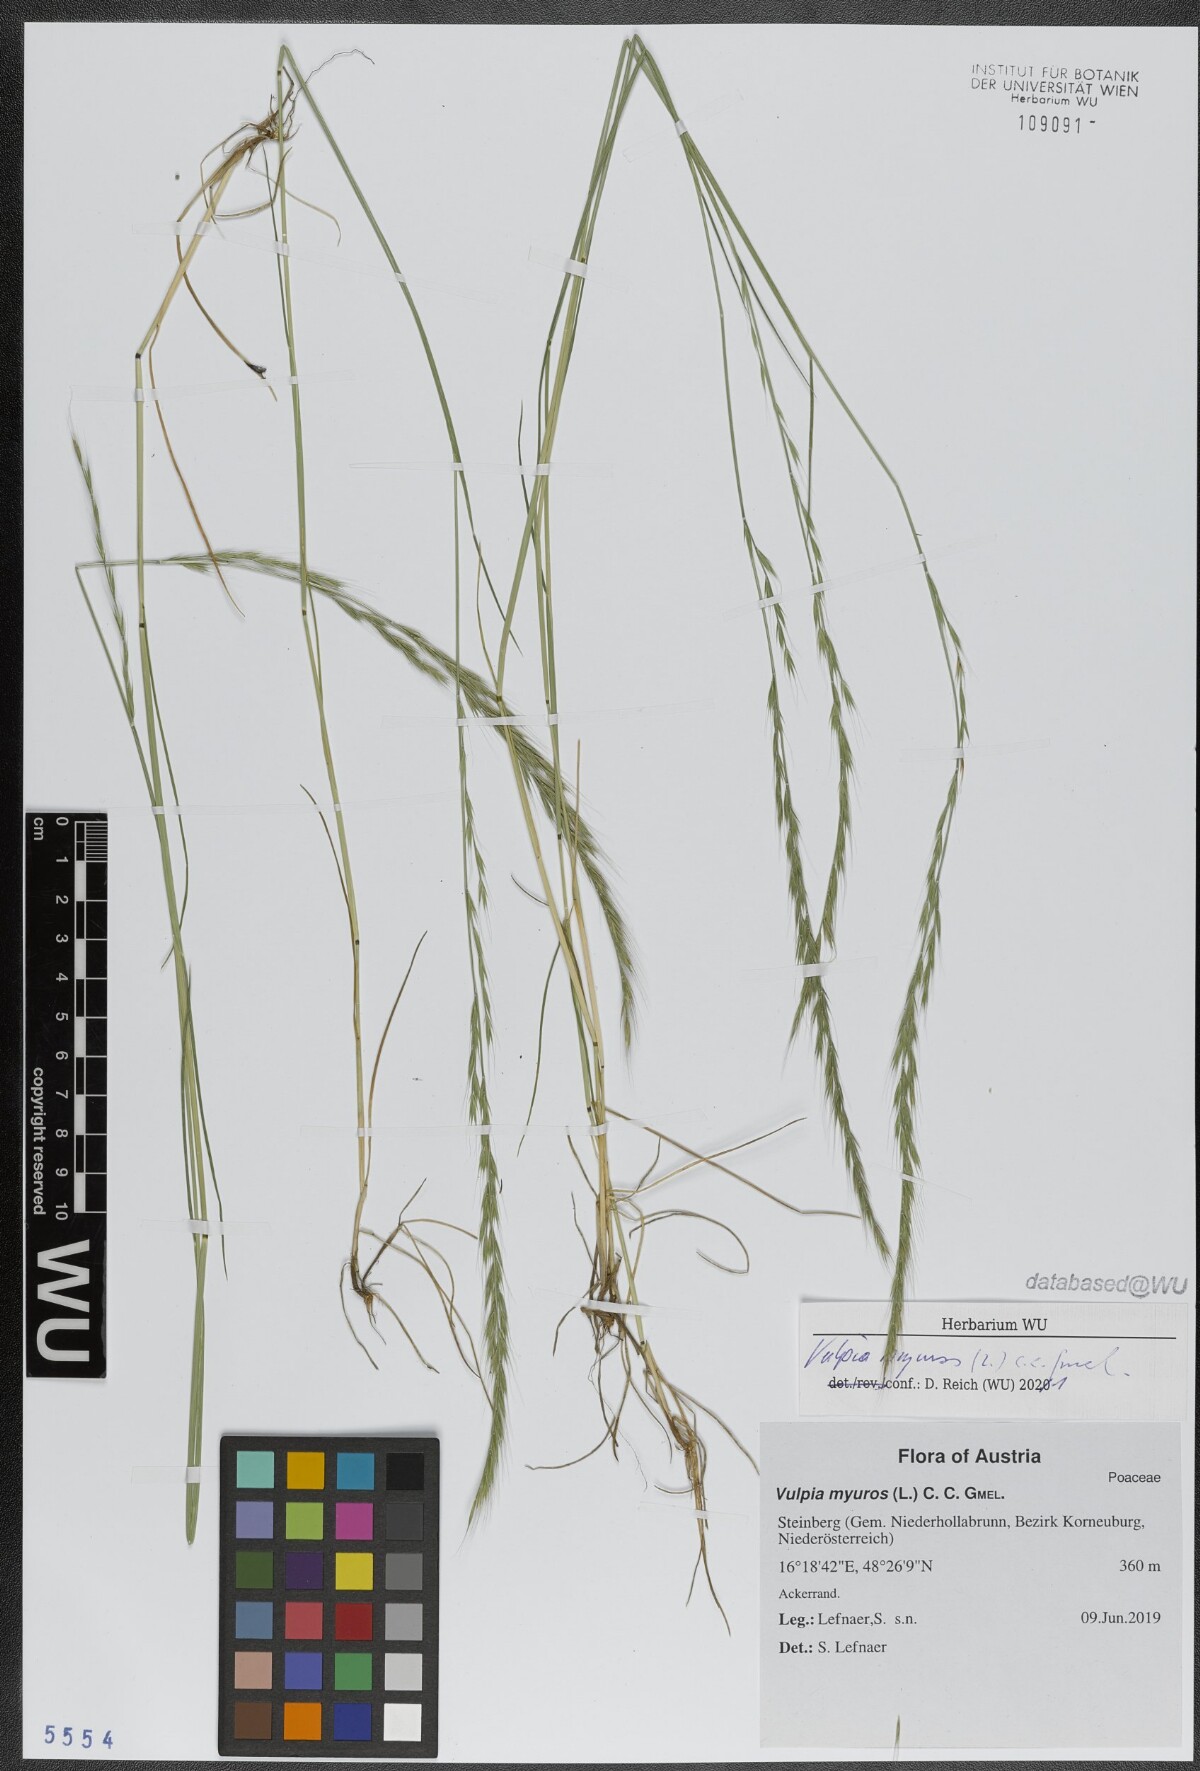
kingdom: Plantae
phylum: Tracheophyta
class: Liliopsida
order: Poales
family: Poaceae
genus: Festuca
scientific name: Festuca myuros
